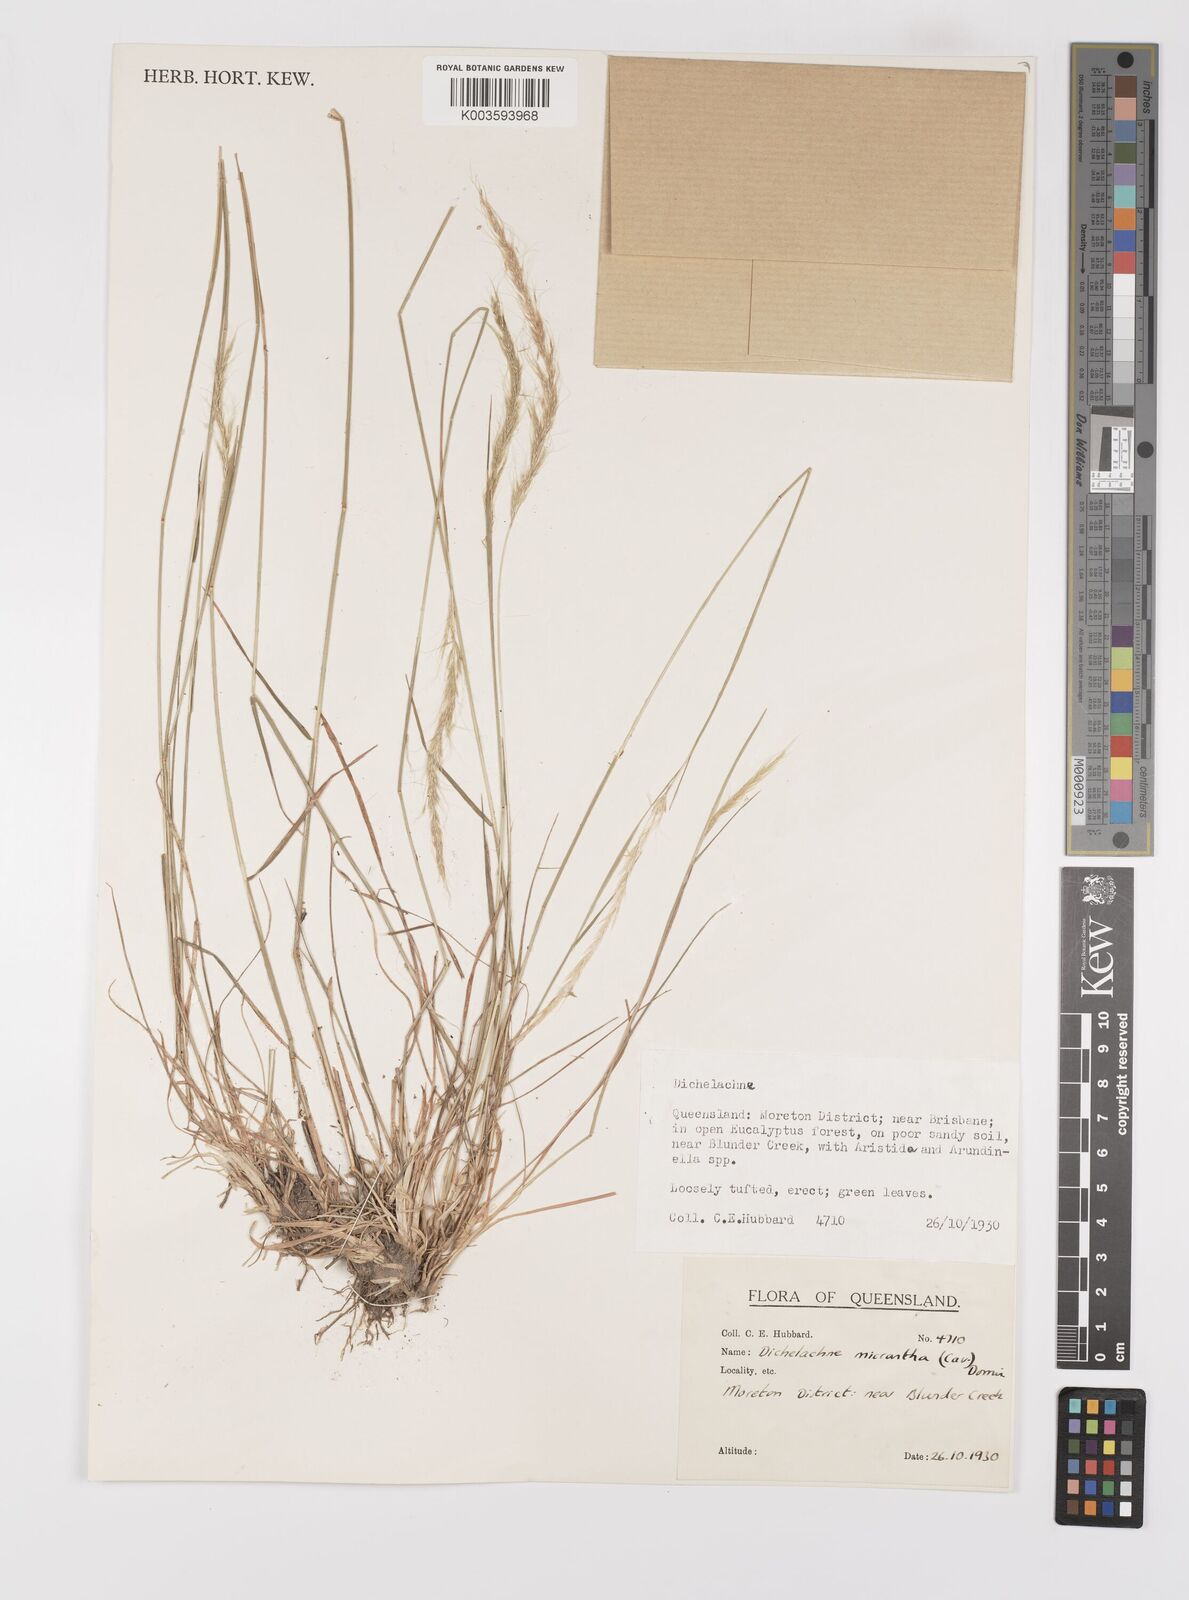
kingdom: Plantae
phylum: Tracheophyta
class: Liliopsida
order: Poales
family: Poaceae
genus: Dichelachne
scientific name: Dichelachne micrantha
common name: Plumegrass
